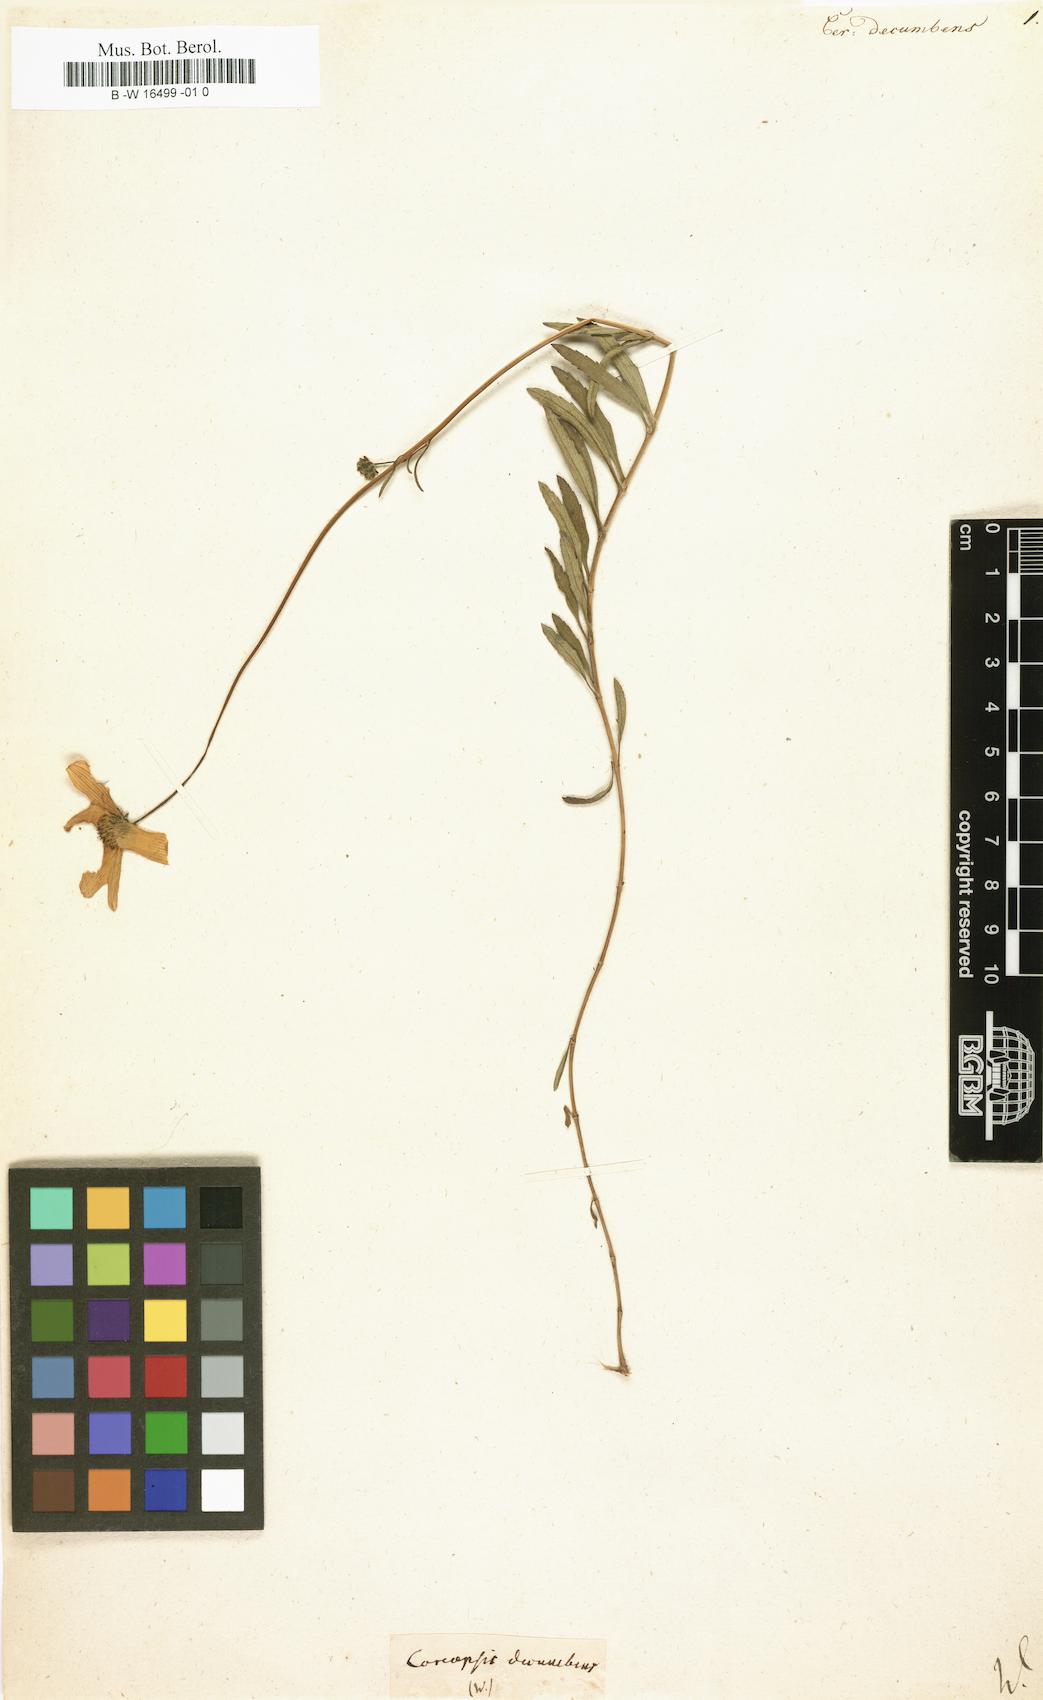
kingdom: Plantae
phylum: Tracheophyta
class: Magnoliopsida
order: Asterales
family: Asteraceae
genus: Coreopsis
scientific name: Coreopsis
